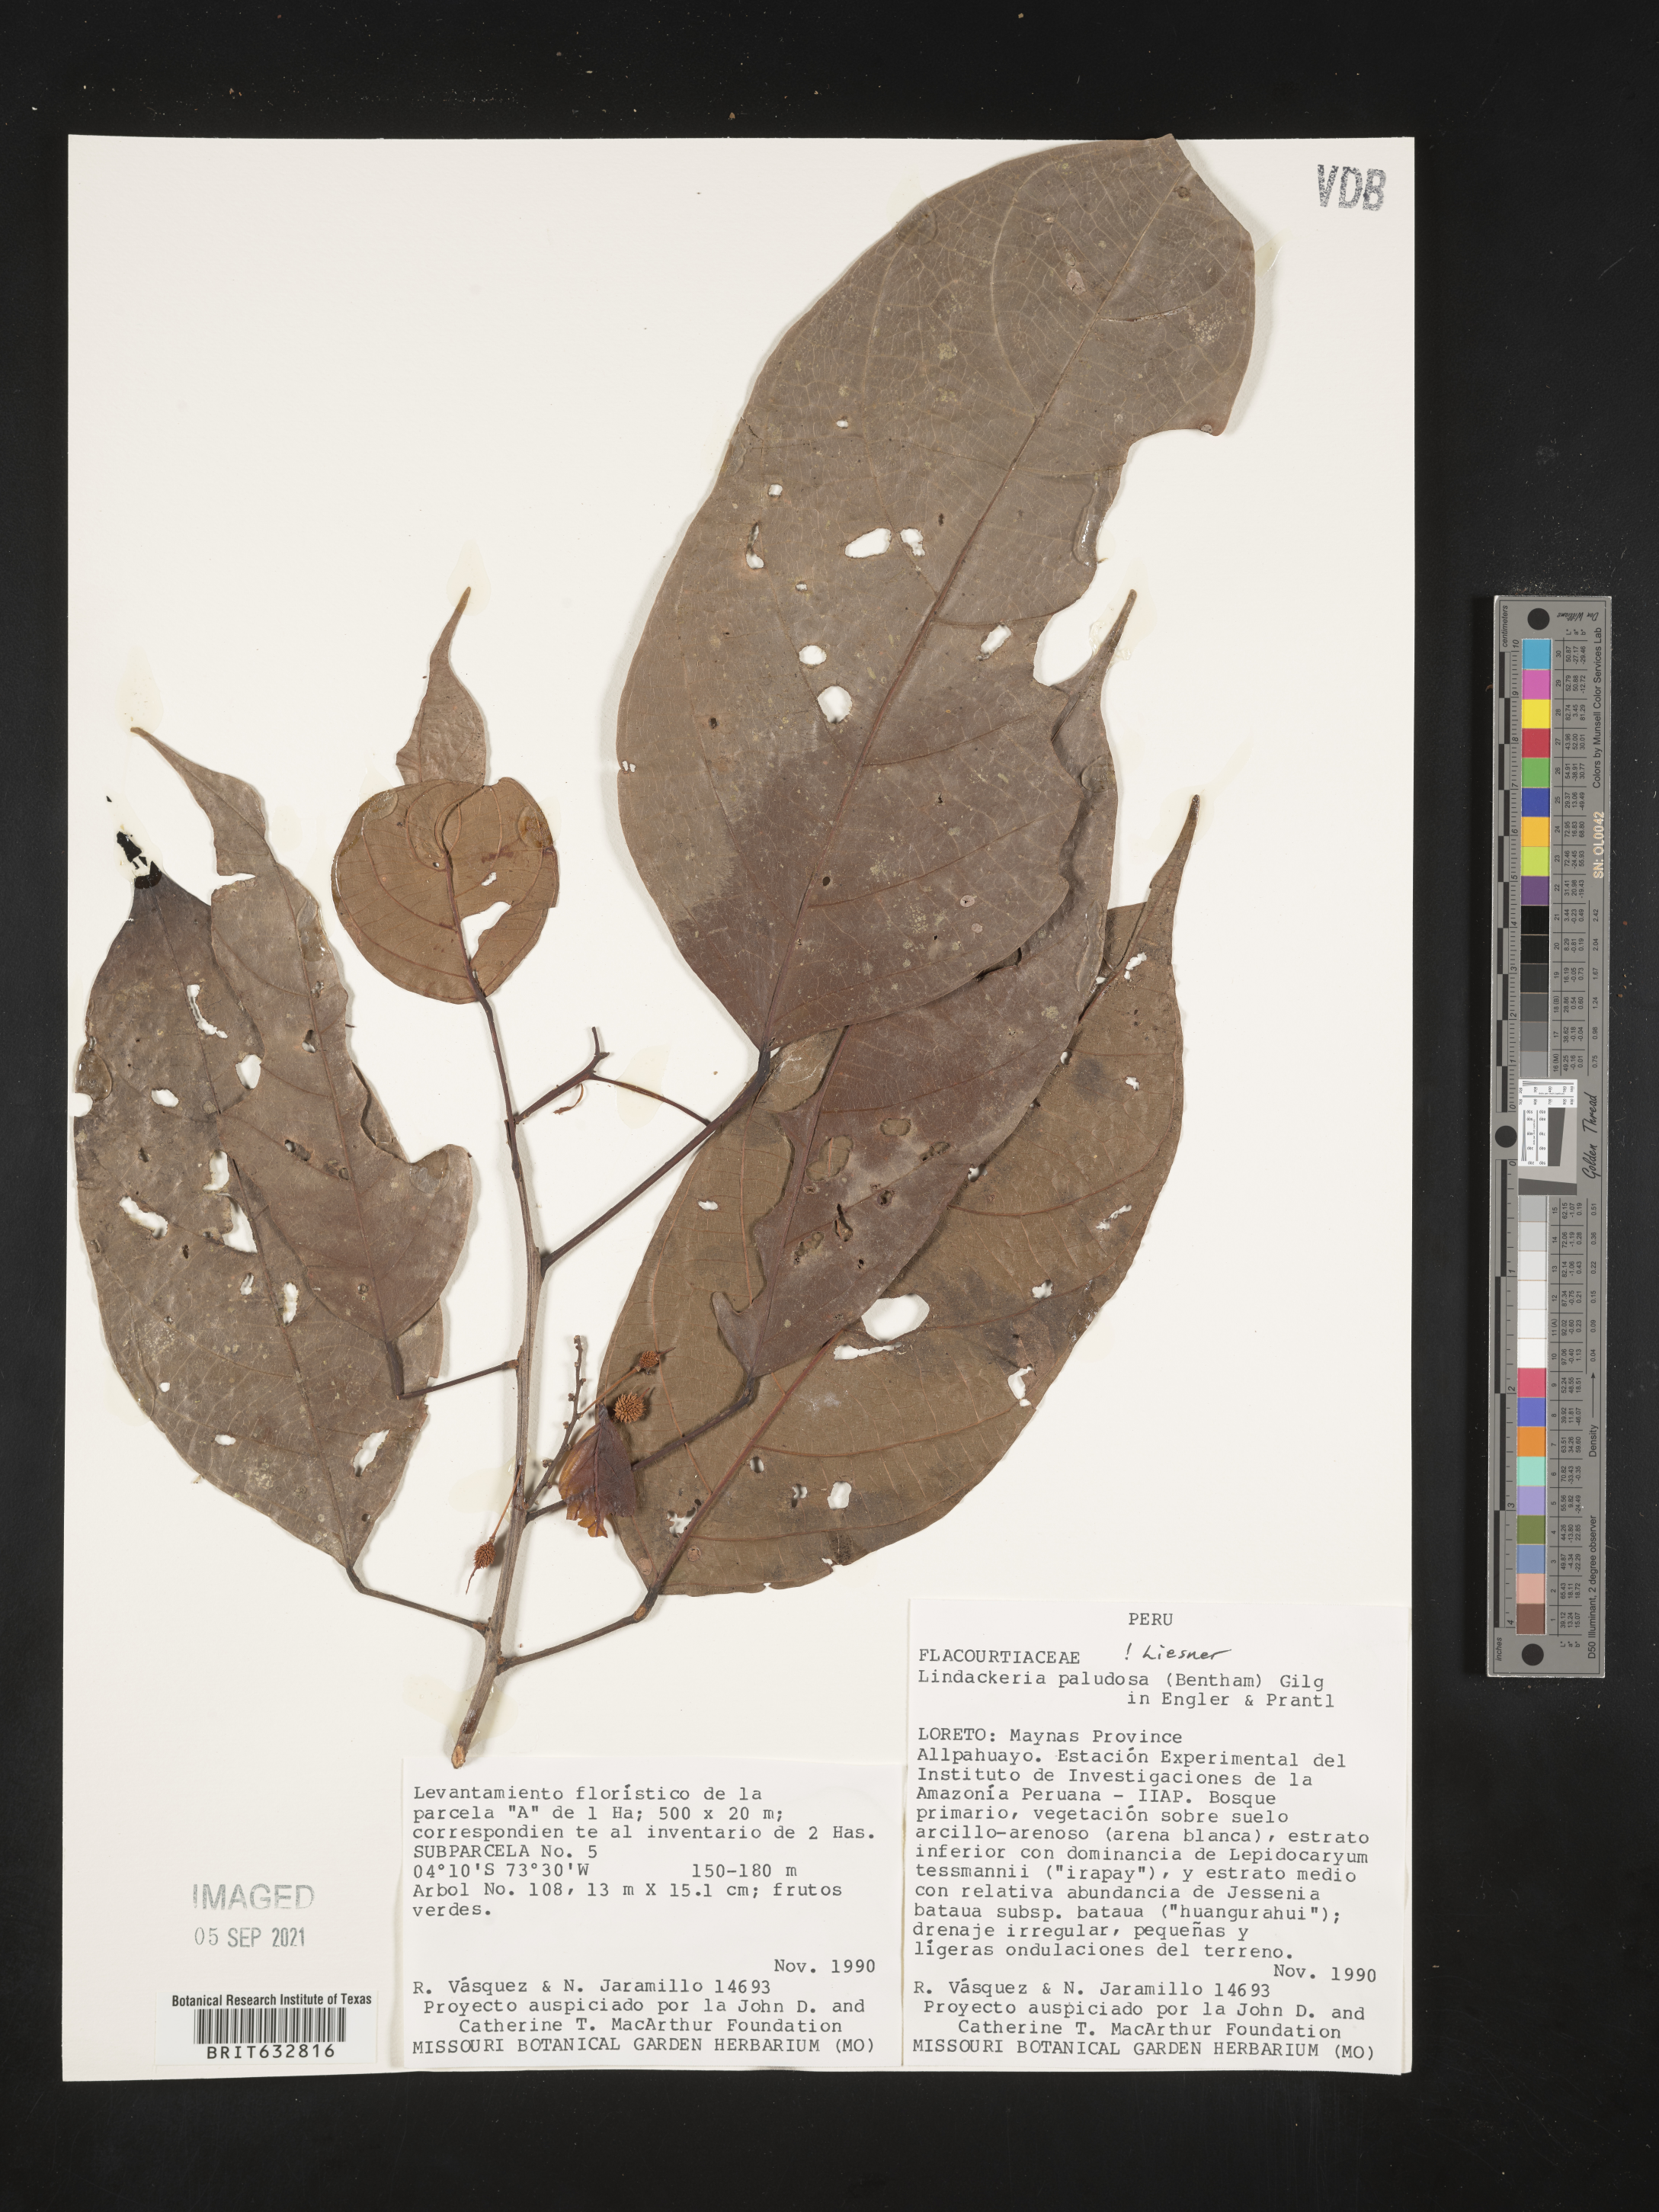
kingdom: Plantae
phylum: Tracheophyta
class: Magnoliopsida
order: Malpighiales
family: Achariaceae
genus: Lindackeria
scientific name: Lindackeria paludosa
